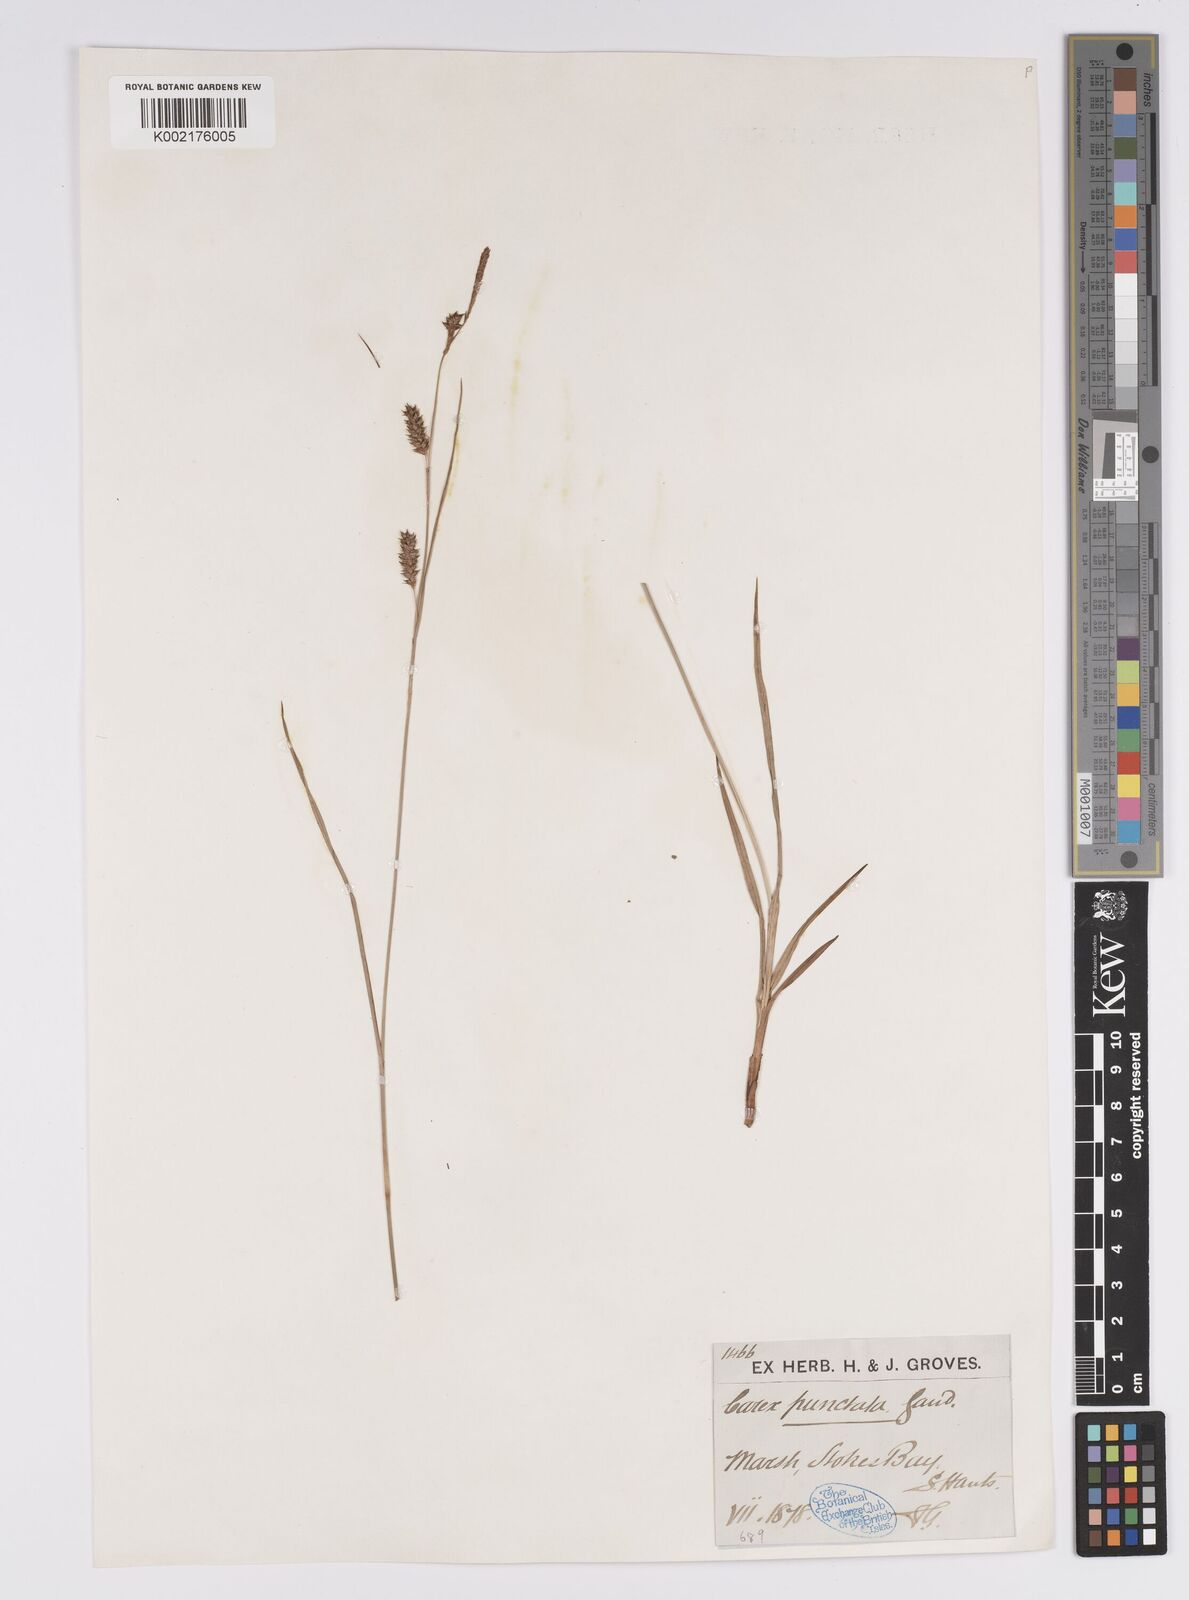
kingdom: Plantae
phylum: Tracheophyta
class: Liliopsida
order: Poales
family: Cyperaceae
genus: Carex
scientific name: Carex punctata
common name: Dotted sedge
